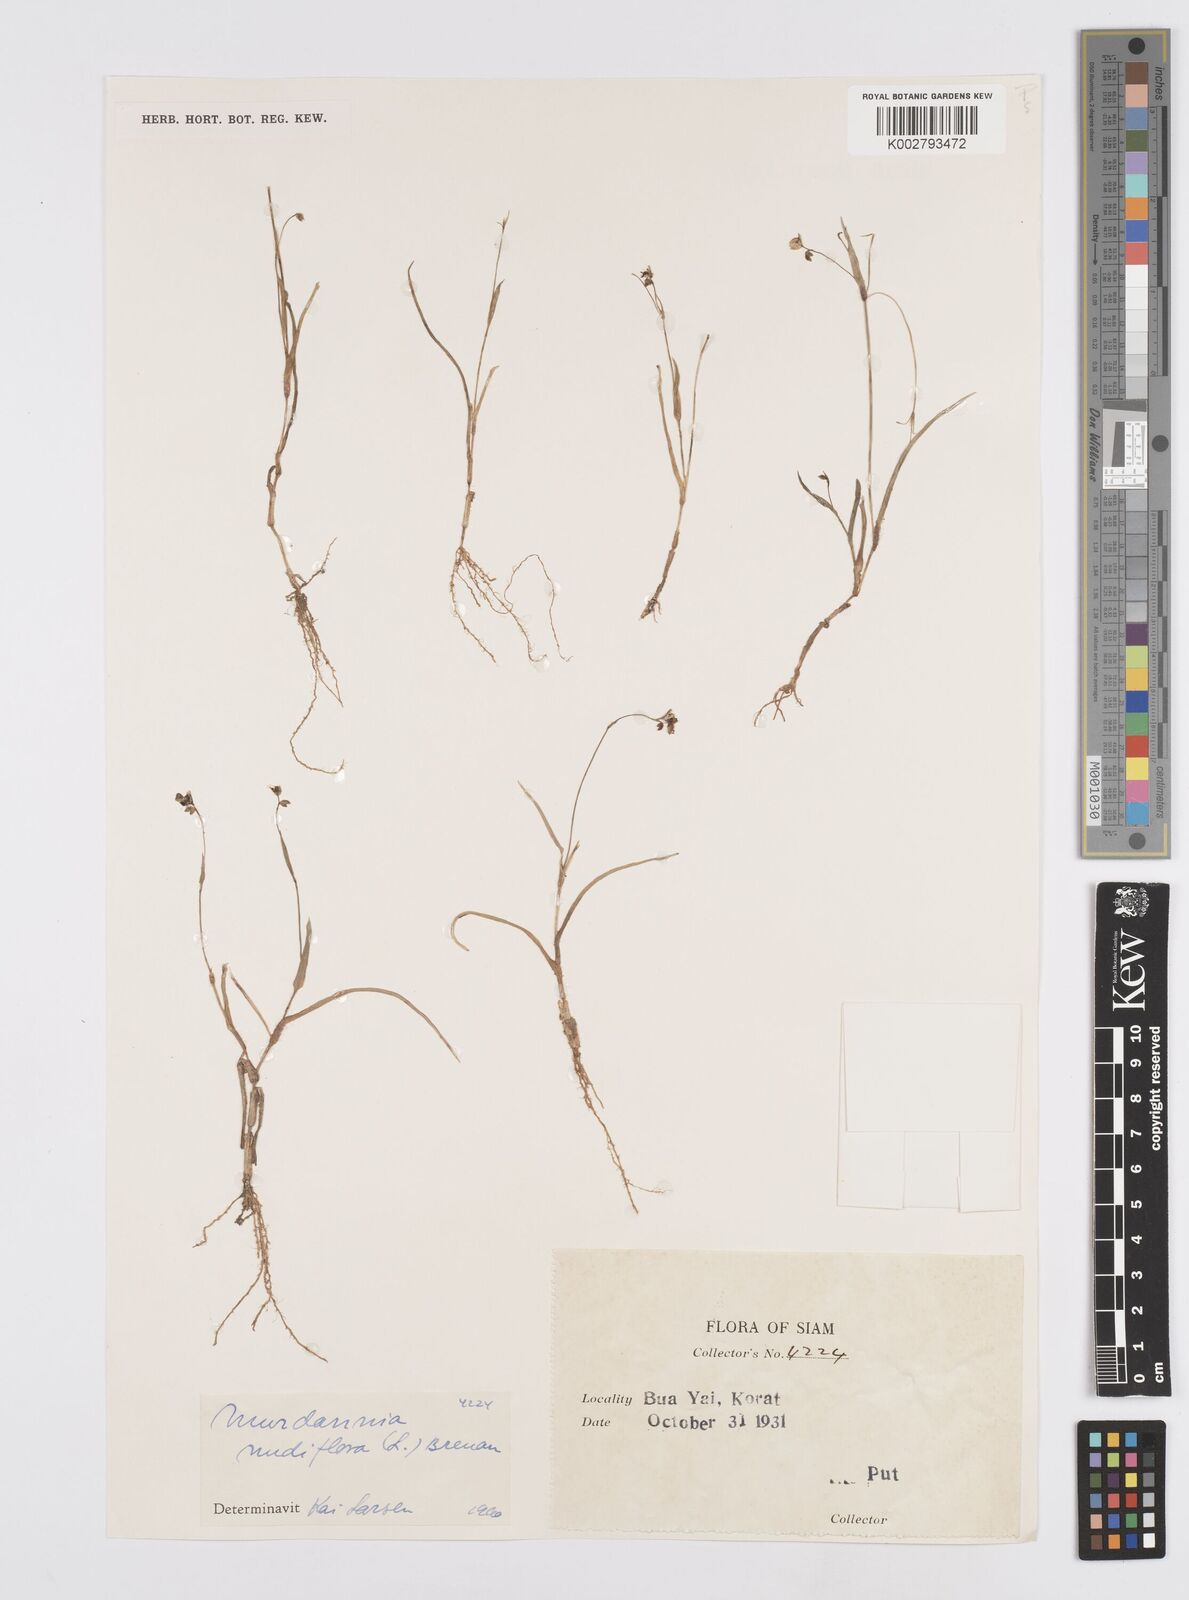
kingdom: Plantae
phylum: Tracheophyta
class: Liliopsida
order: Commelinales
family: Commelinaceae
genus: Murdannia
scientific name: Murdannia nudiflora
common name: Nakedstem dewflower
